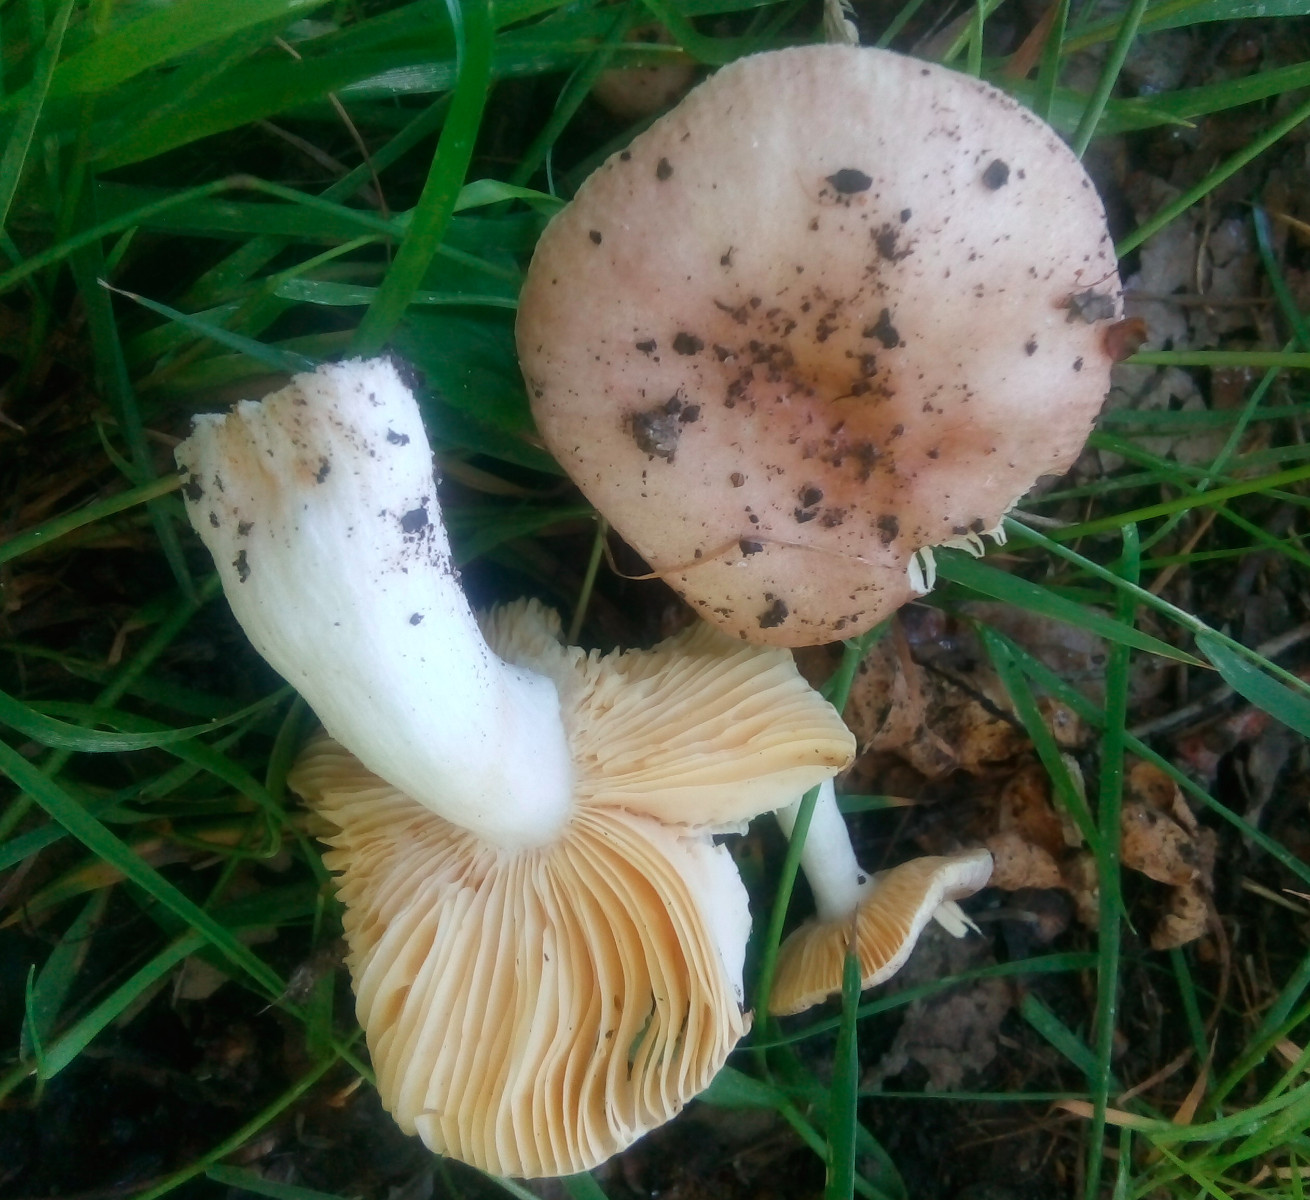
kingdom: Fungi
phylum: Basidiomycota
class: Agaricomycetes
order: Russulales
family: Russulaceae
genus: Russula
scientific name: Russula odorata
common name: duft-skørhat
